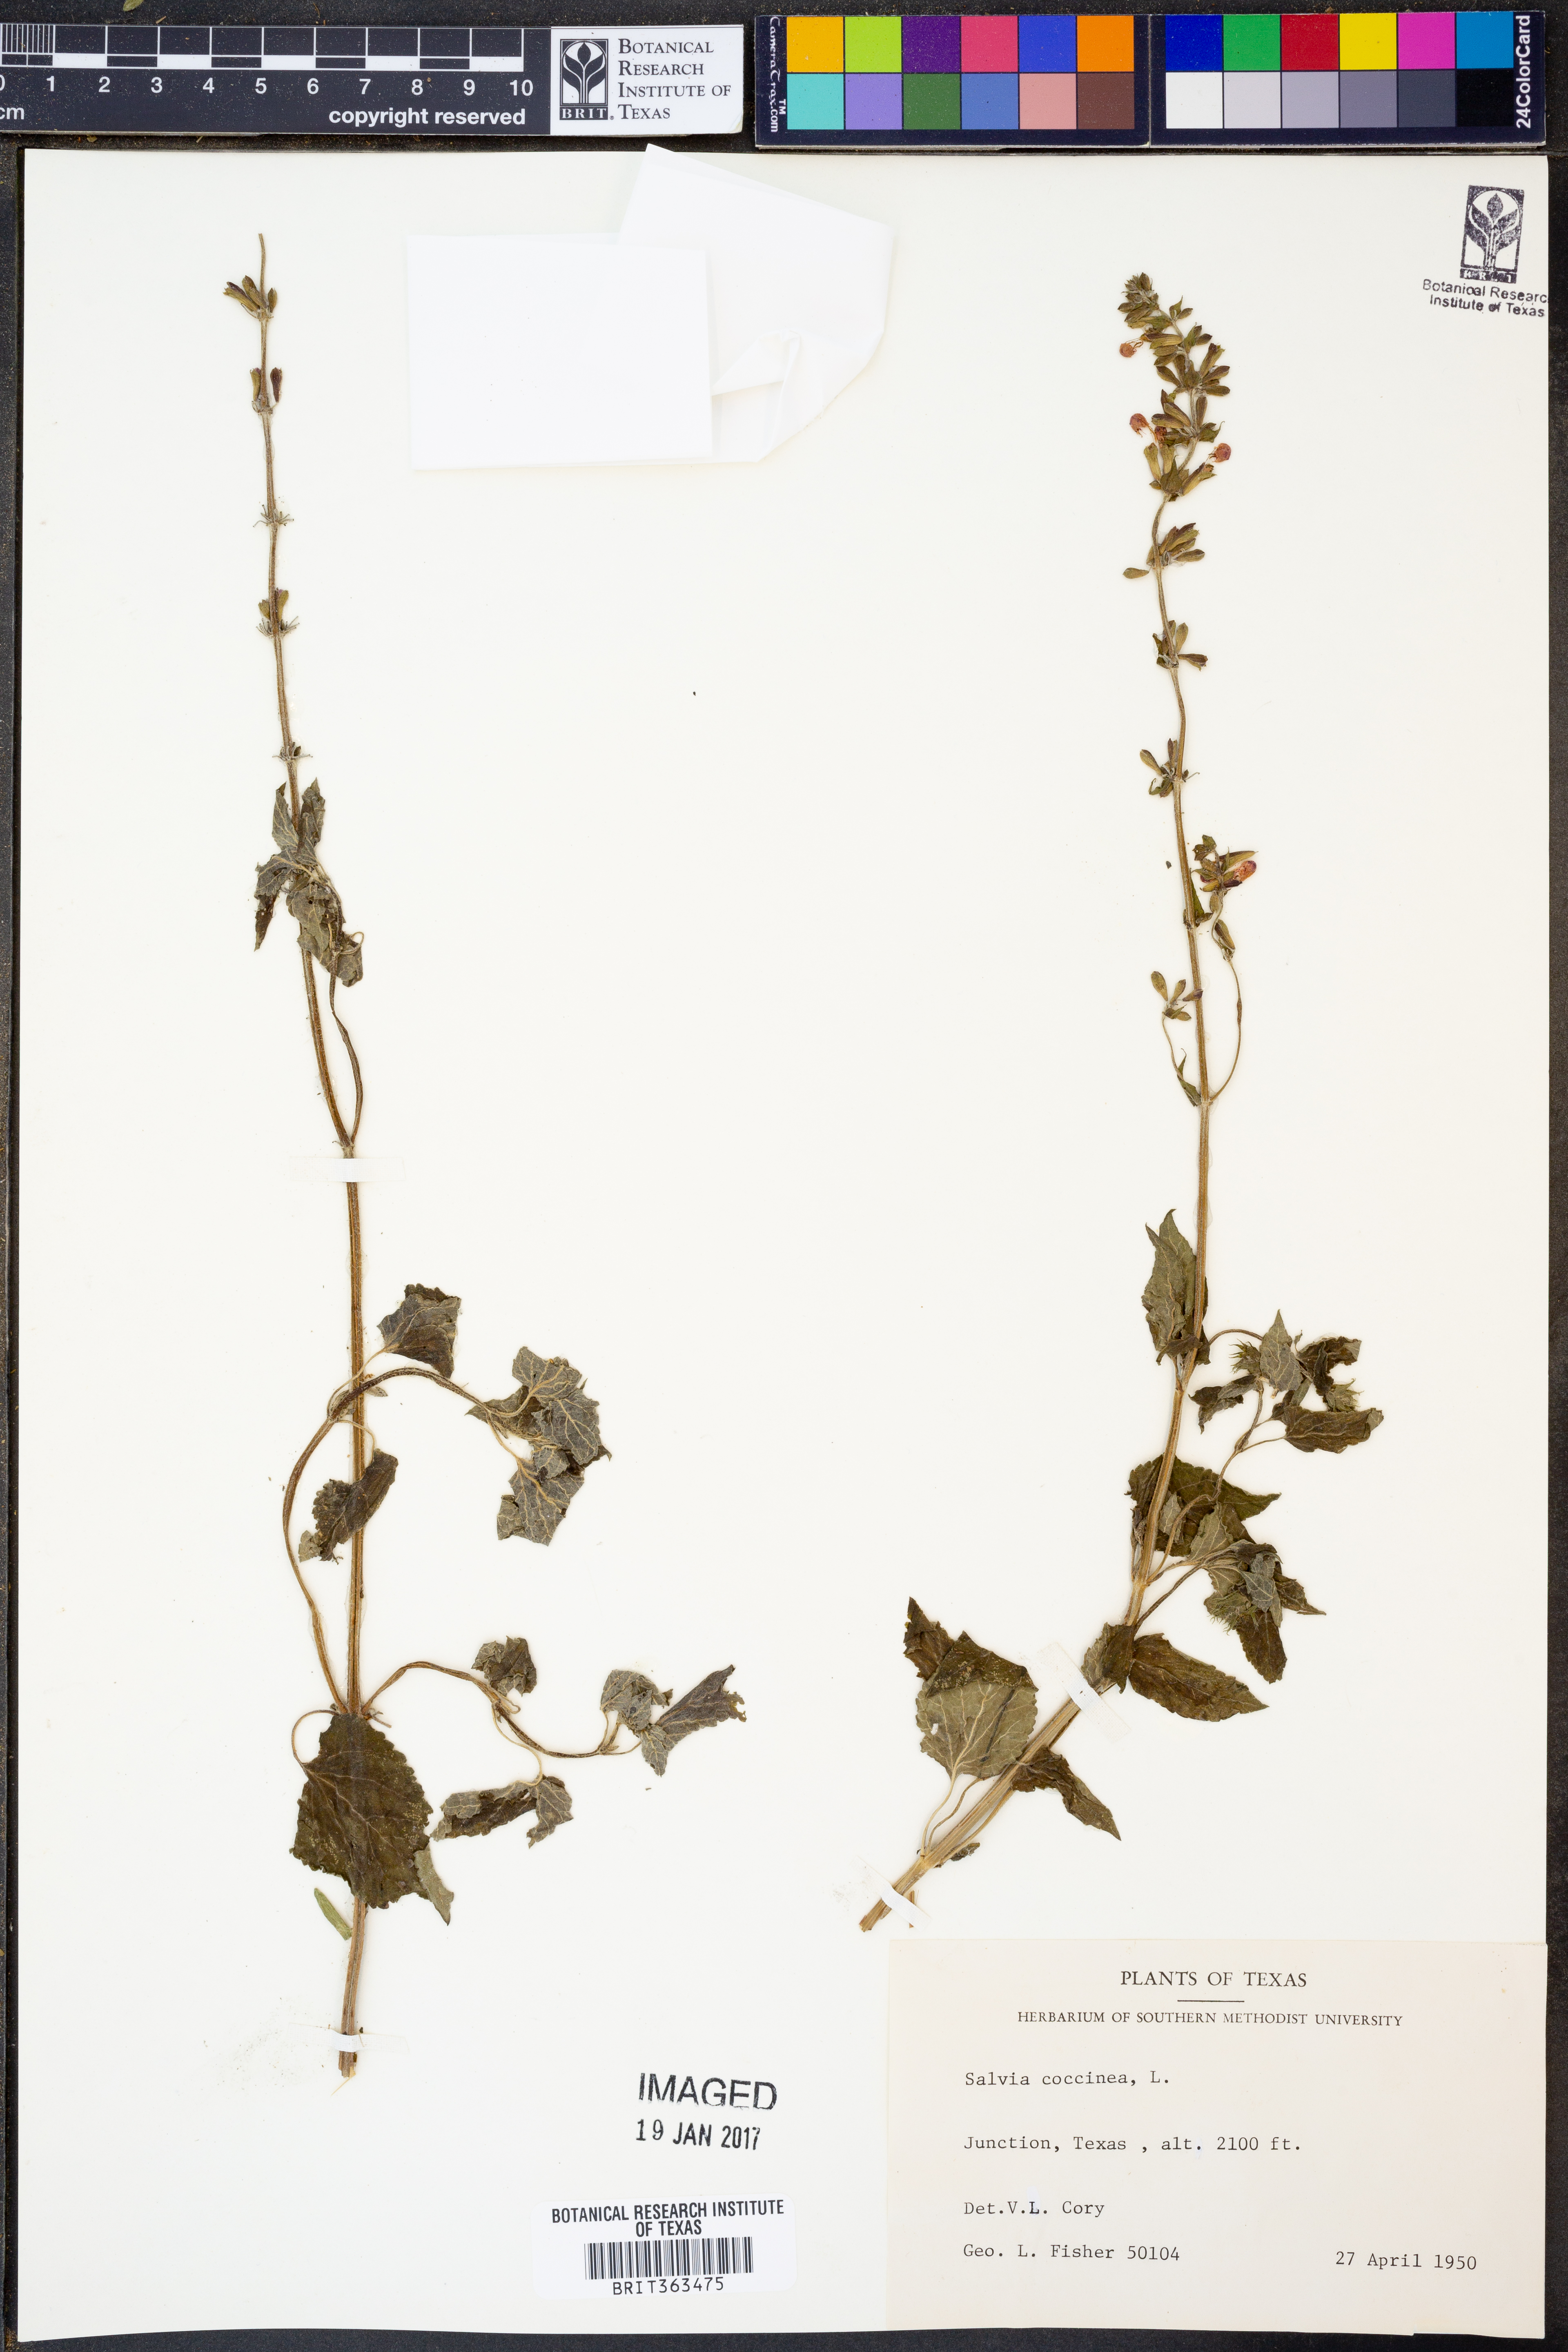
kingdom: Plantae
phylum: Tracheophyta
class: Magnoliopsida
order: Lamiales
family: Lamiaceae
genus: Salvia
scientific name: Salvia coccinea
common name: Blood sage
